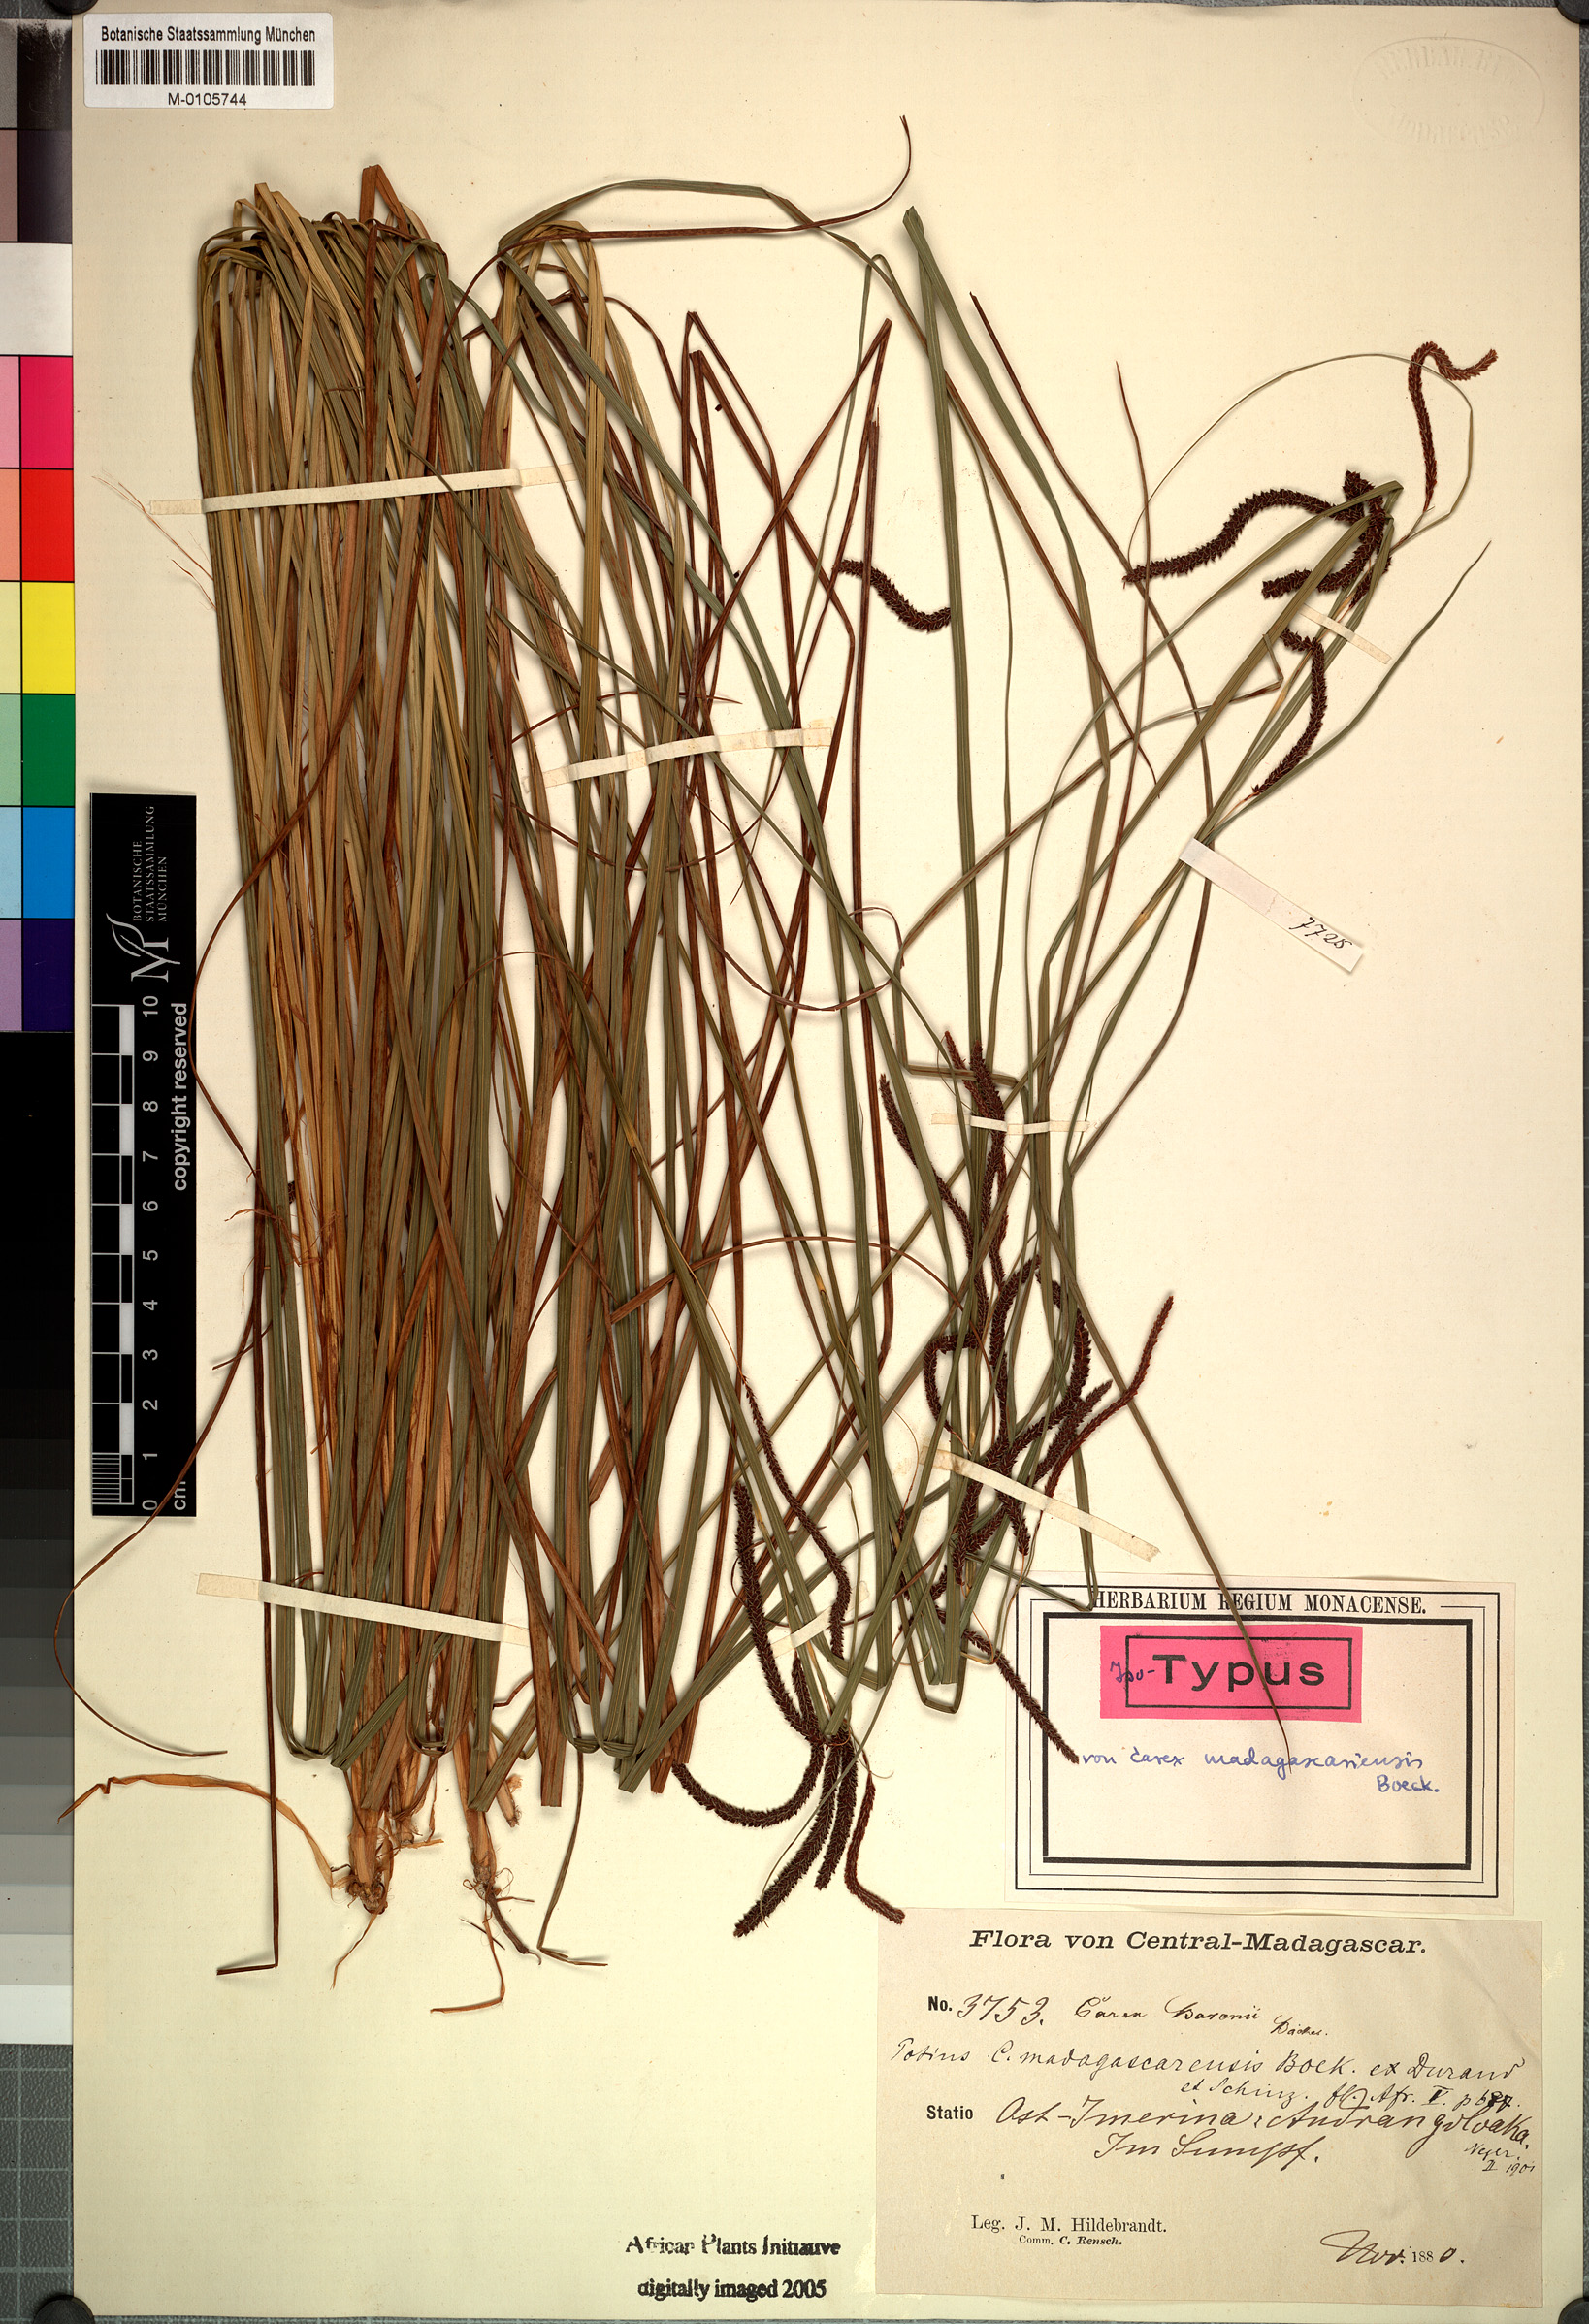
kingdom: Plantae
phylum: Tracheophyta
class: Liliopsida
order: Poales
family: Cyperaceae
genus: Carex
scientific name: Carex madagascariensis
